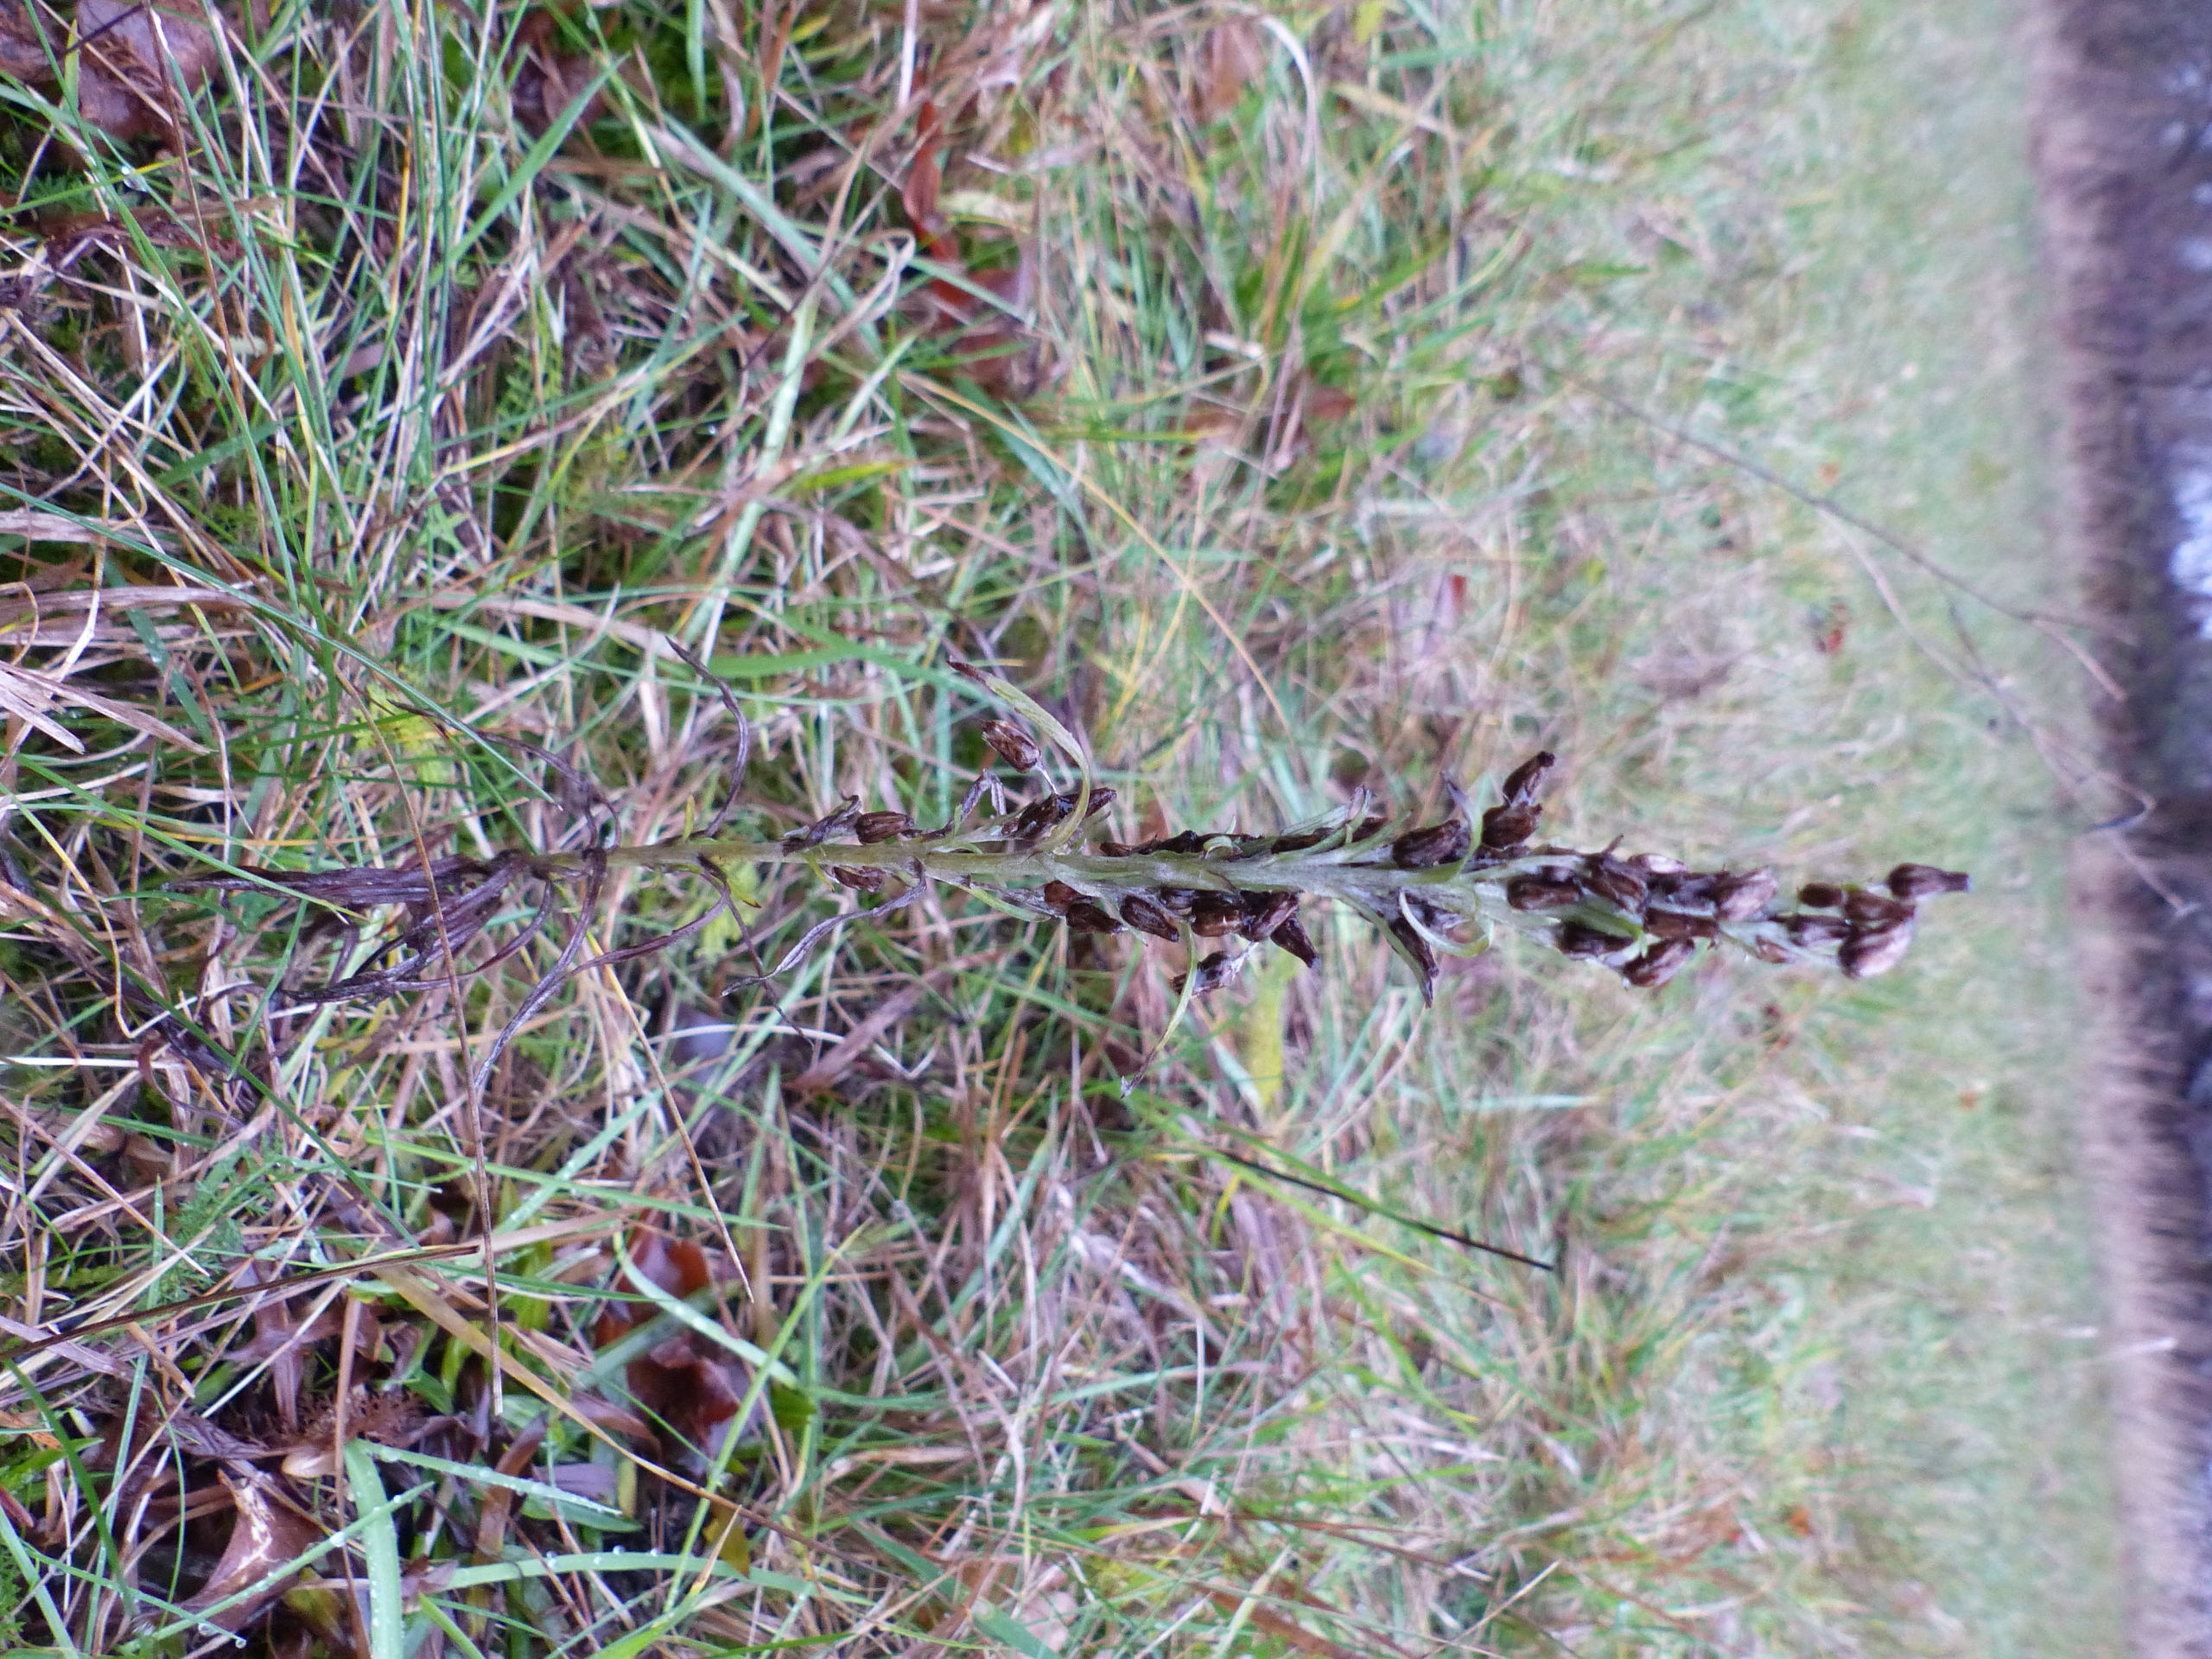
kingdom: Plantae
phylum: Tracheophyta
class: Magnoliopsida
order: Asterales
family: Asteraceae
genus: Omalotheca
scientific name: Omalotheca sylvatica
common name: Rank evighedsblomst
